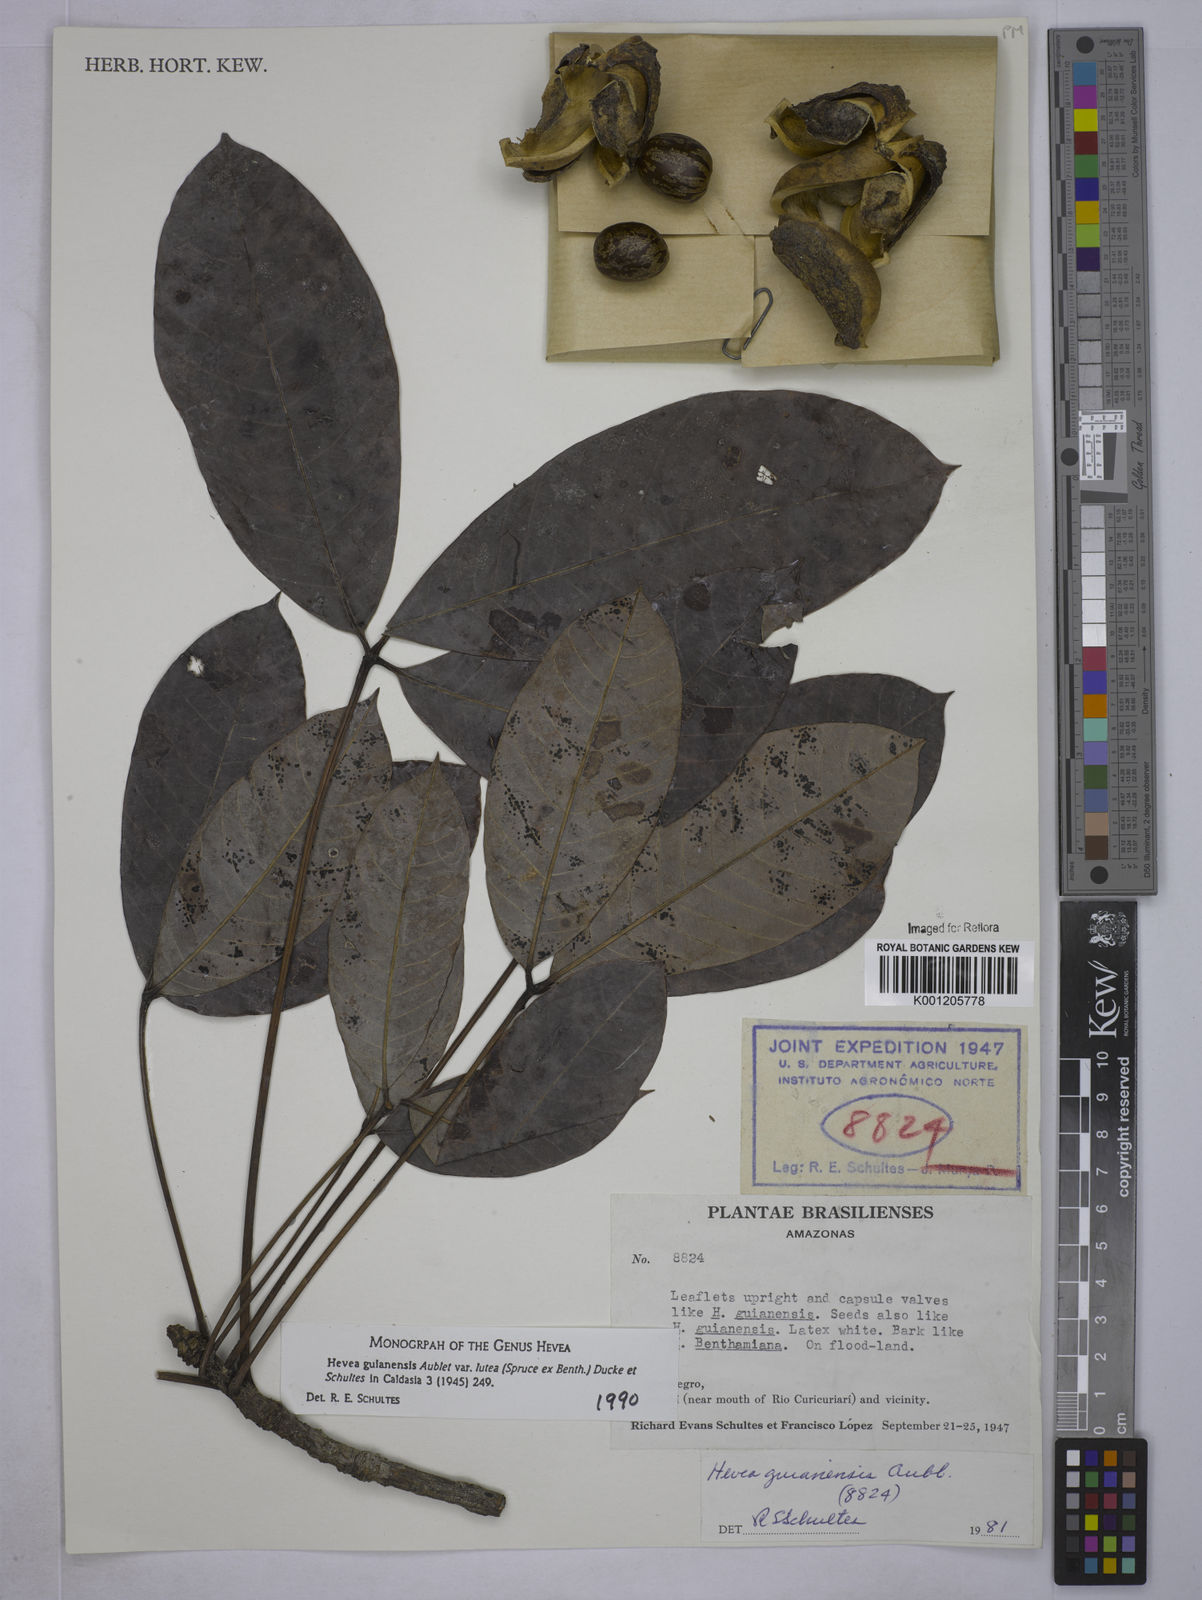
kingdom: Plantae
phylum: Tracheophyta
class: Magnoliopsida
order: Malpighiales
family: Euphorbiaceae
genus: Hevea
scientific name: Hevea guianensis
